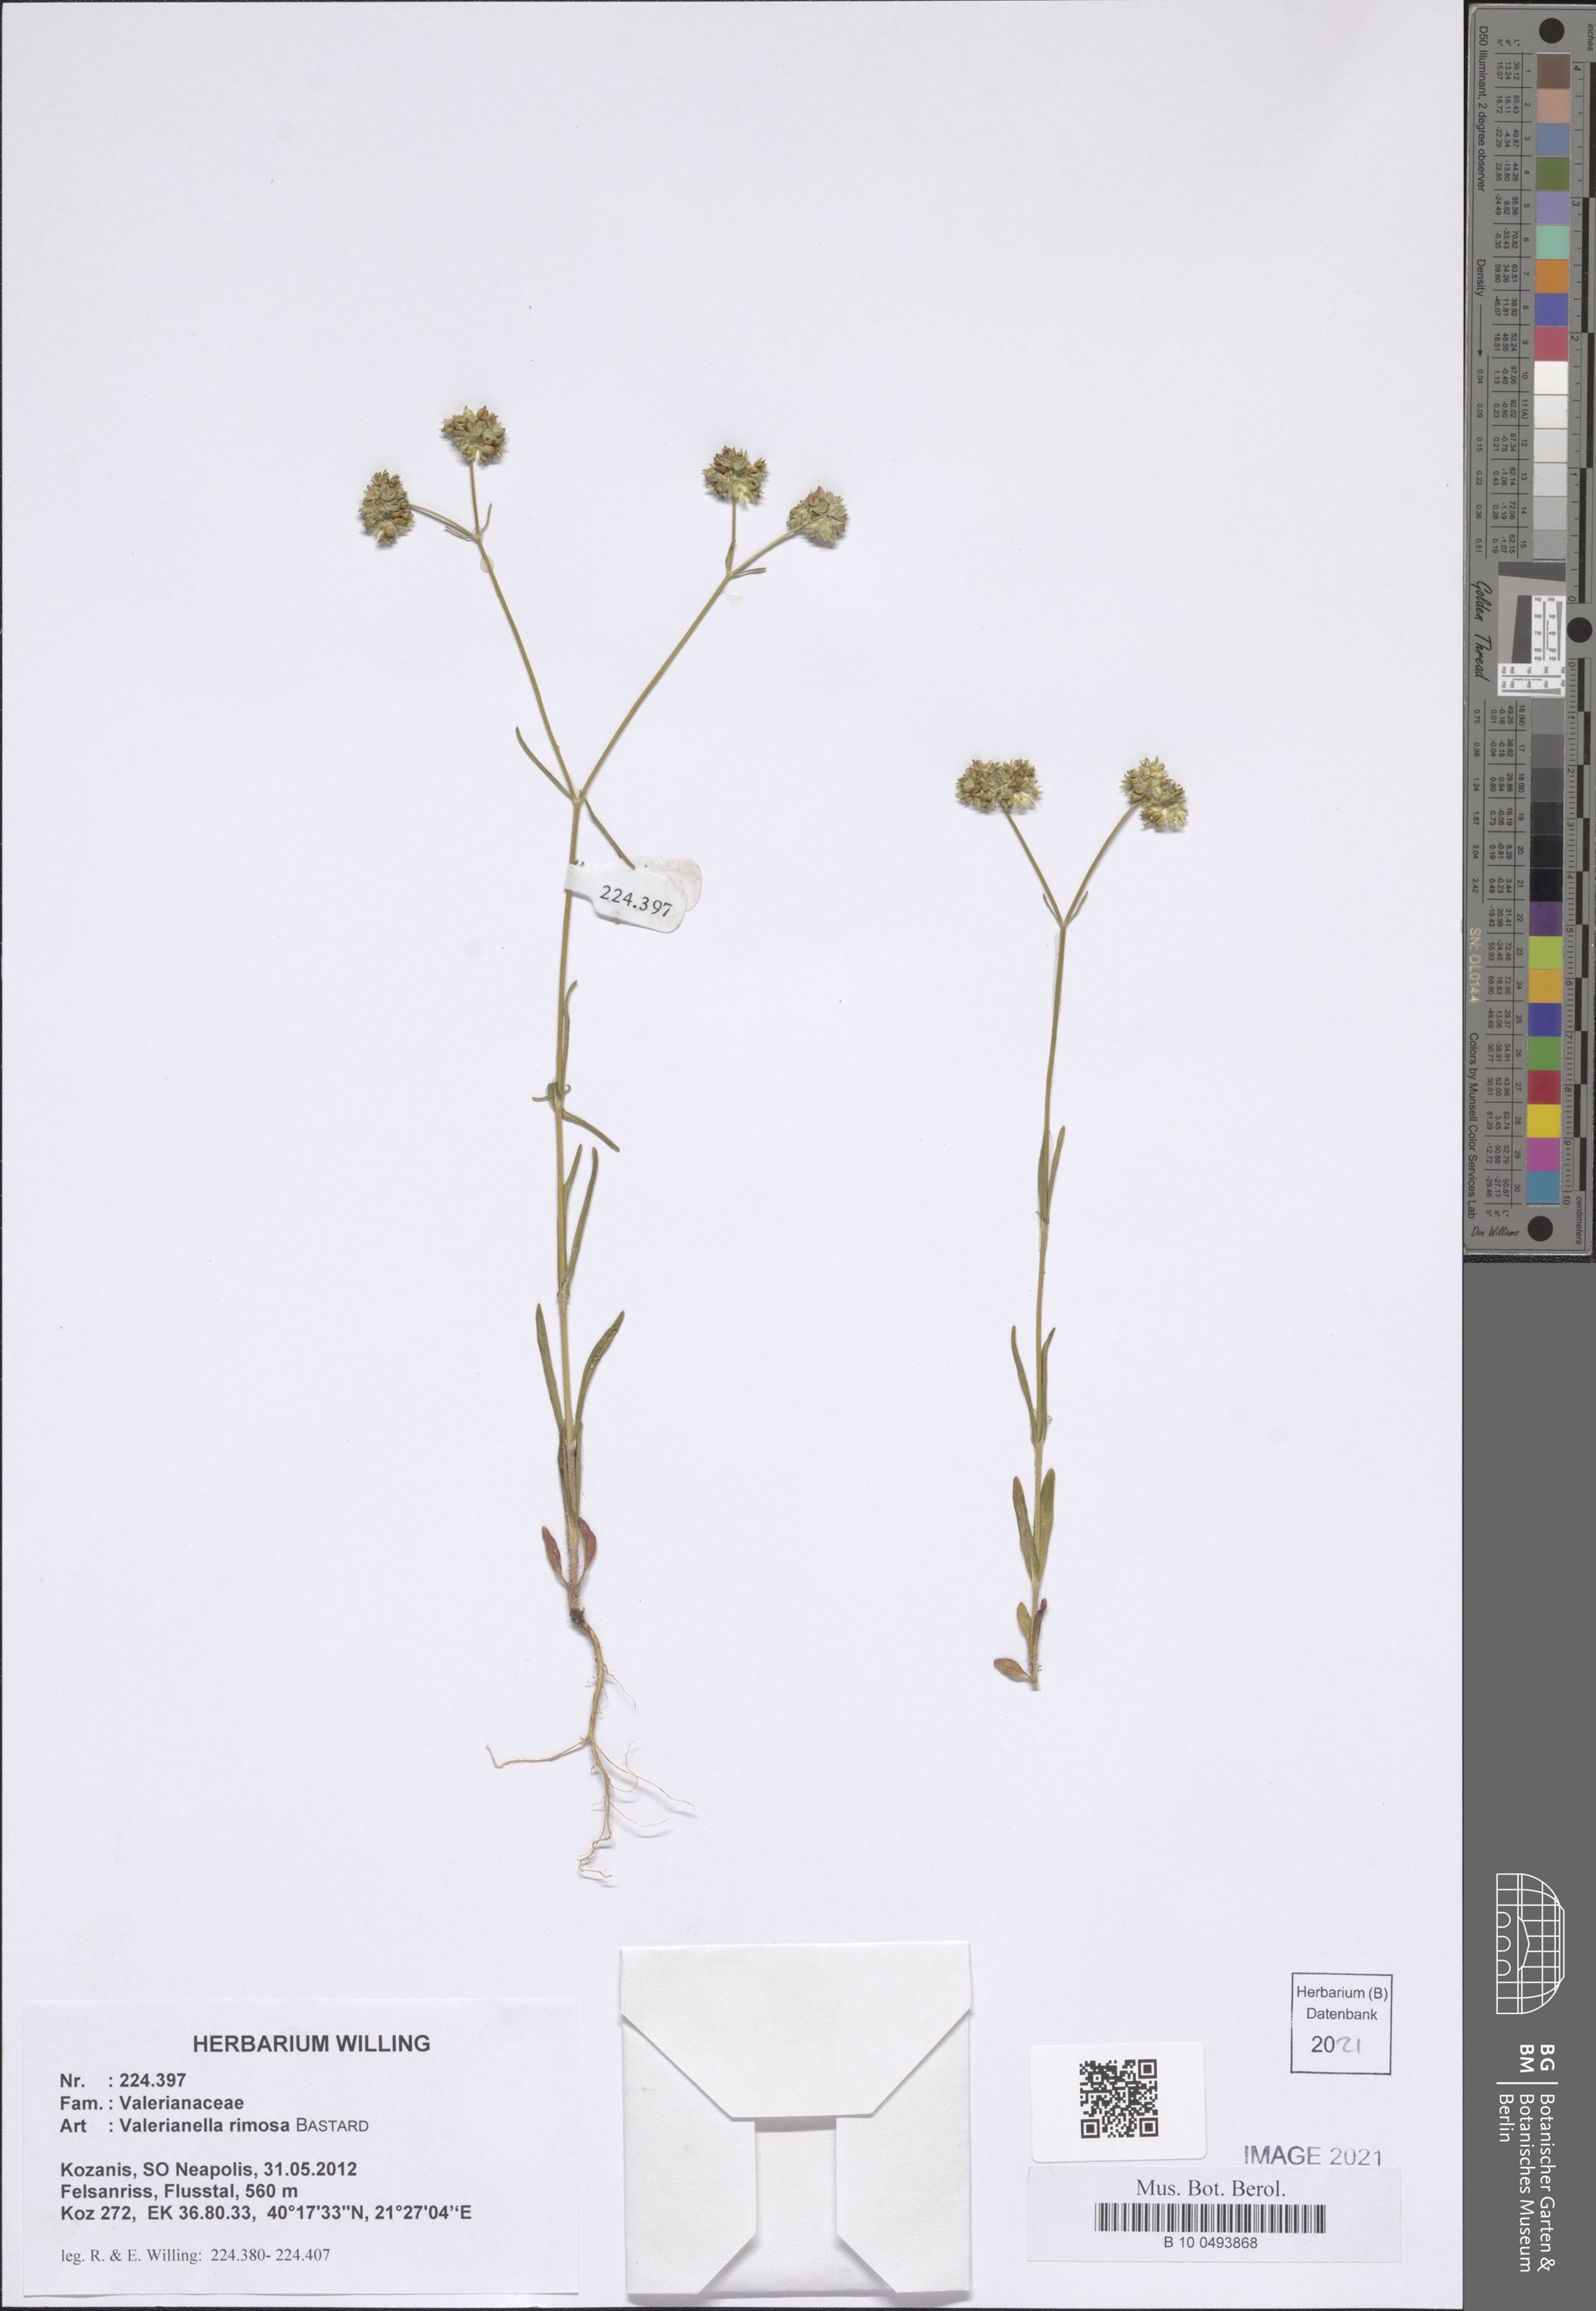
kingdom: Plantae
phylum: Tracheophyta
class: Magnoliopsida
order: Dipsacales
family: Caprifoliaceae
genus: Valerianella
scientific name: Valerianella rimosa
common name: Broad-fruited cornsalad
